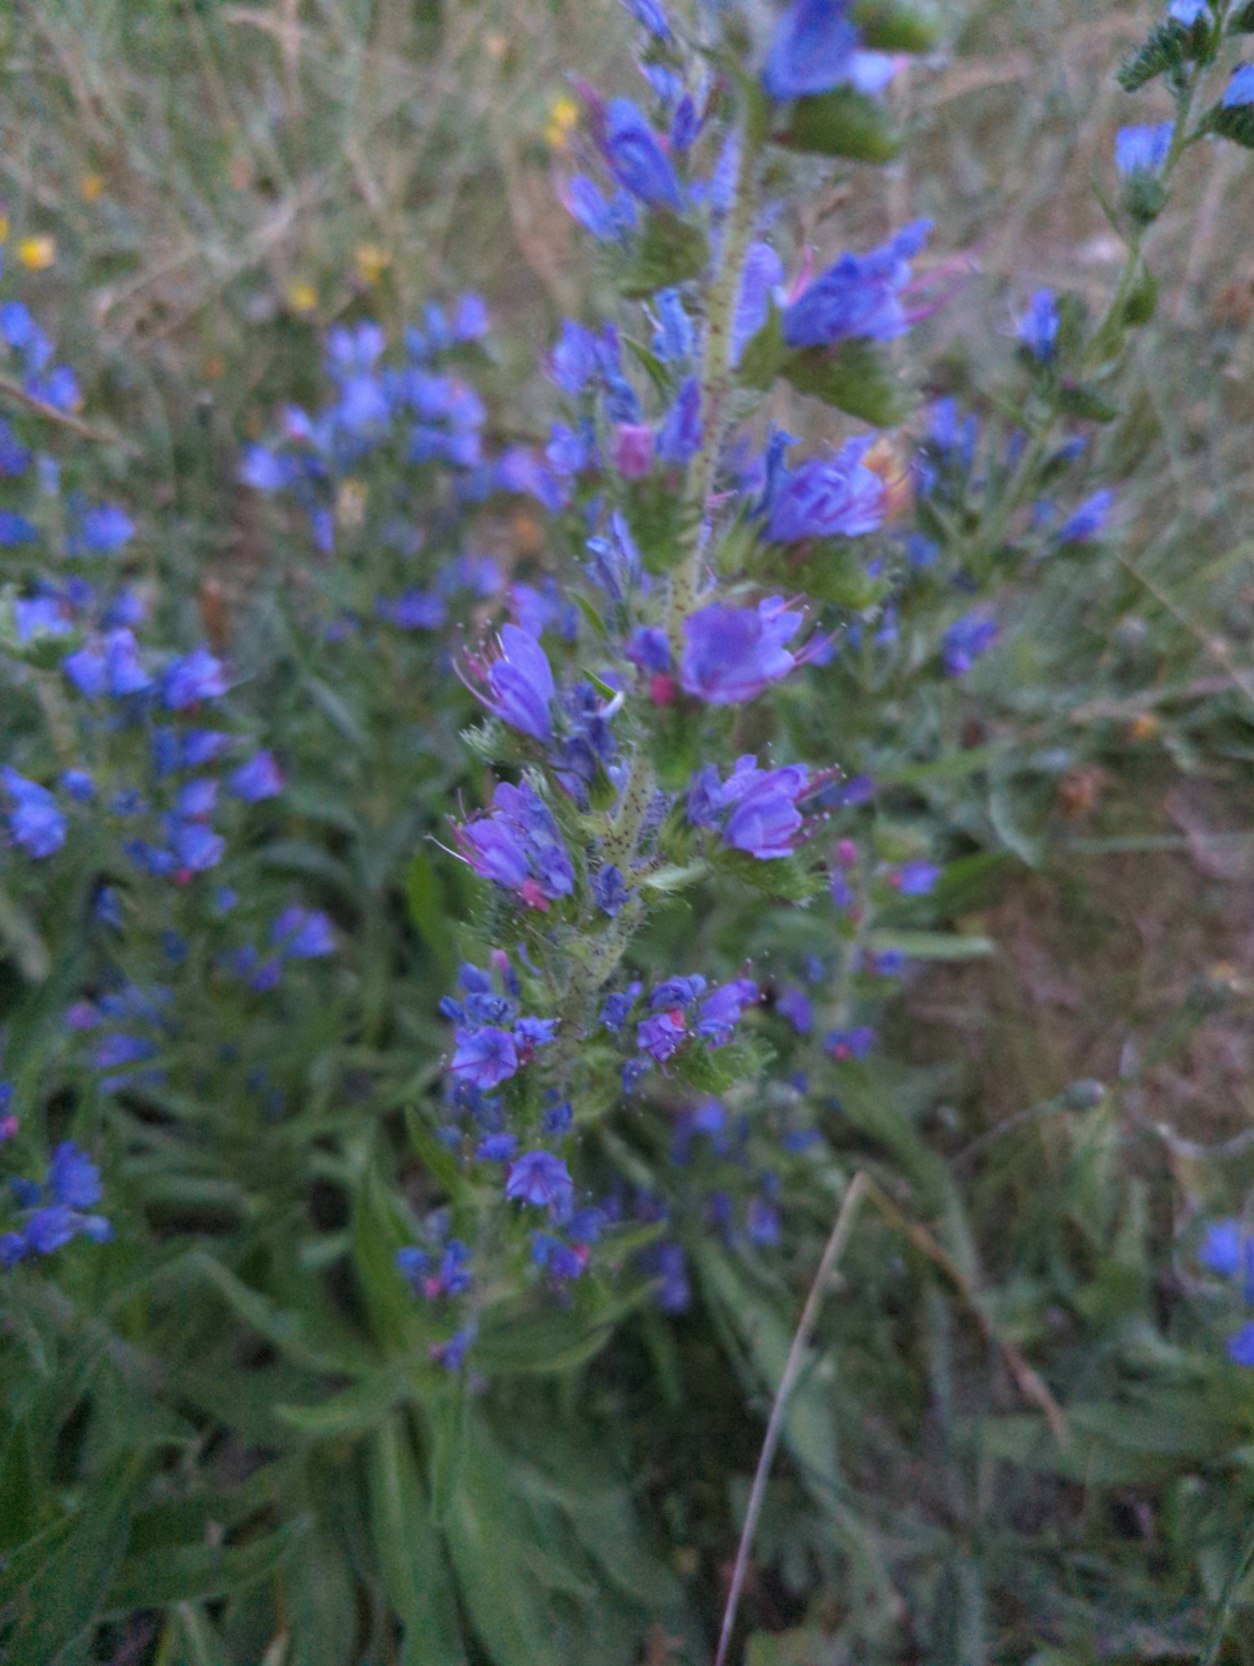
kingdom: Plantae
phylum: Tracheophyta
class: Magnoliopsida
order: Boraginales
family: Boraginaceae
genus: Echium
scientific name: Echium vulgare
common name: Slangehoved
